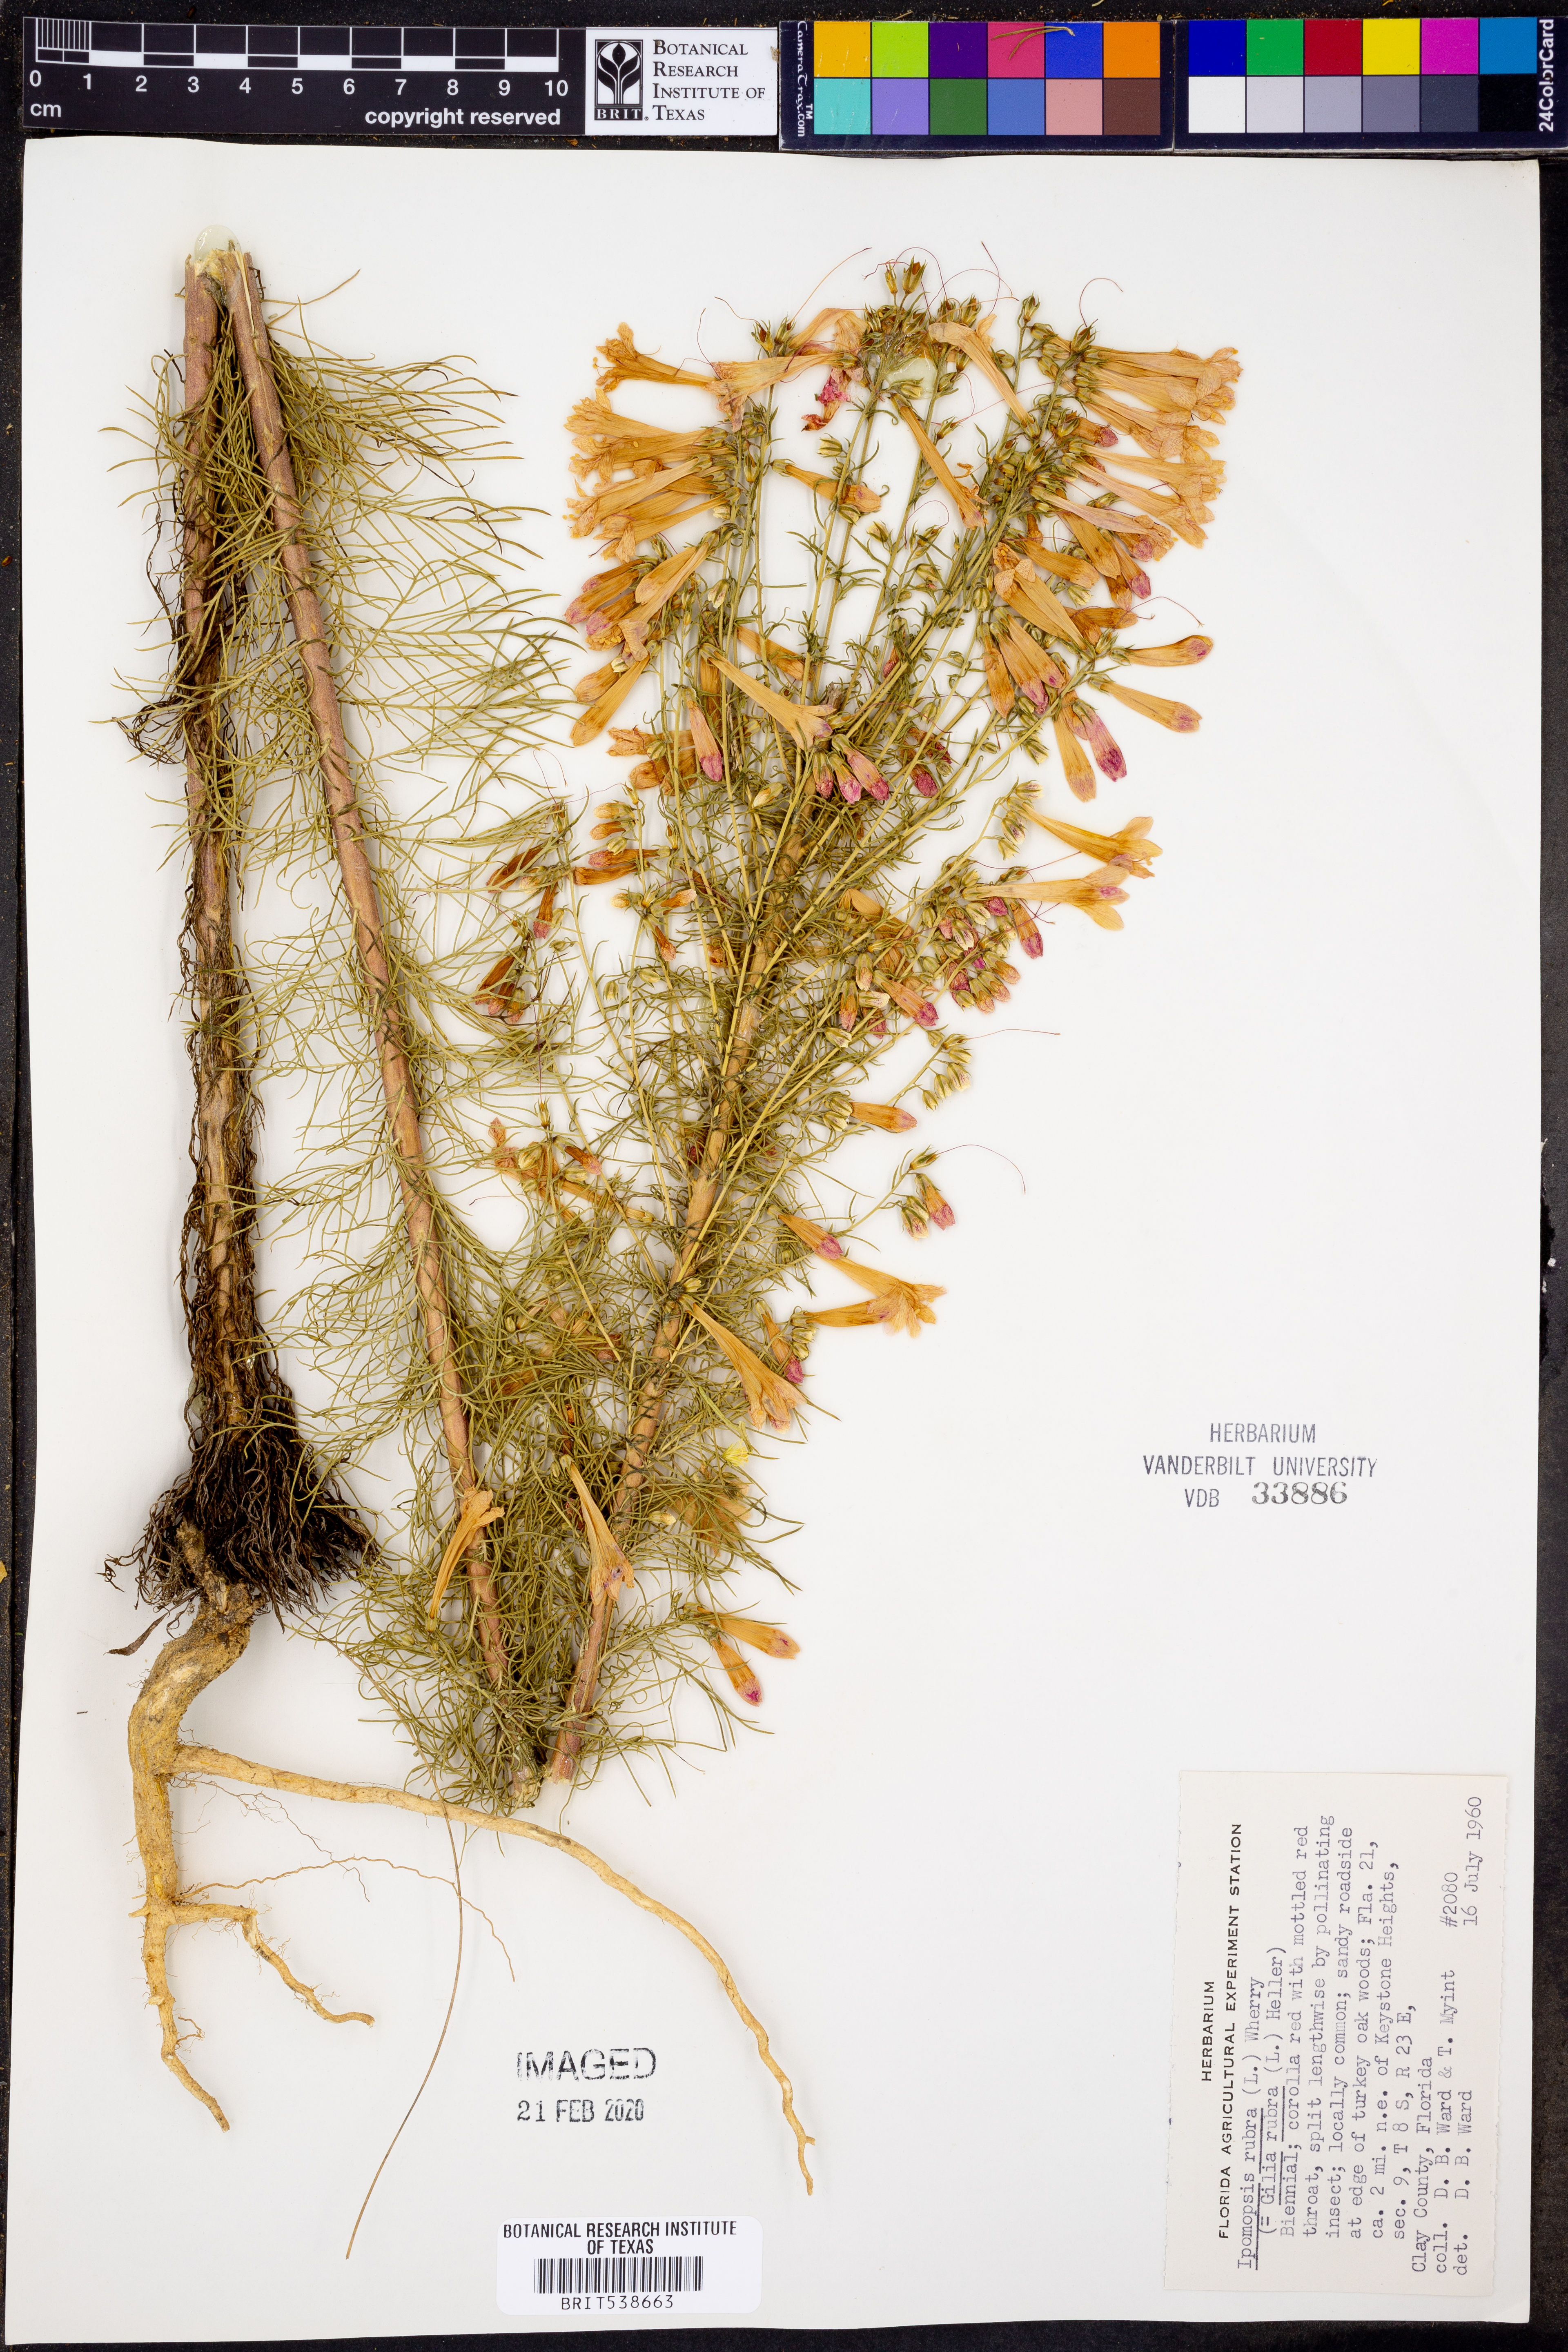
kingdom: Plantae
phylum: Tracheophyta
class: Magnoliopsida
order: Ericales
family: Polemoniaceae
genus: Ipomopsis
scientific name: Ipomopsis rubra
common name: Skyrocket
